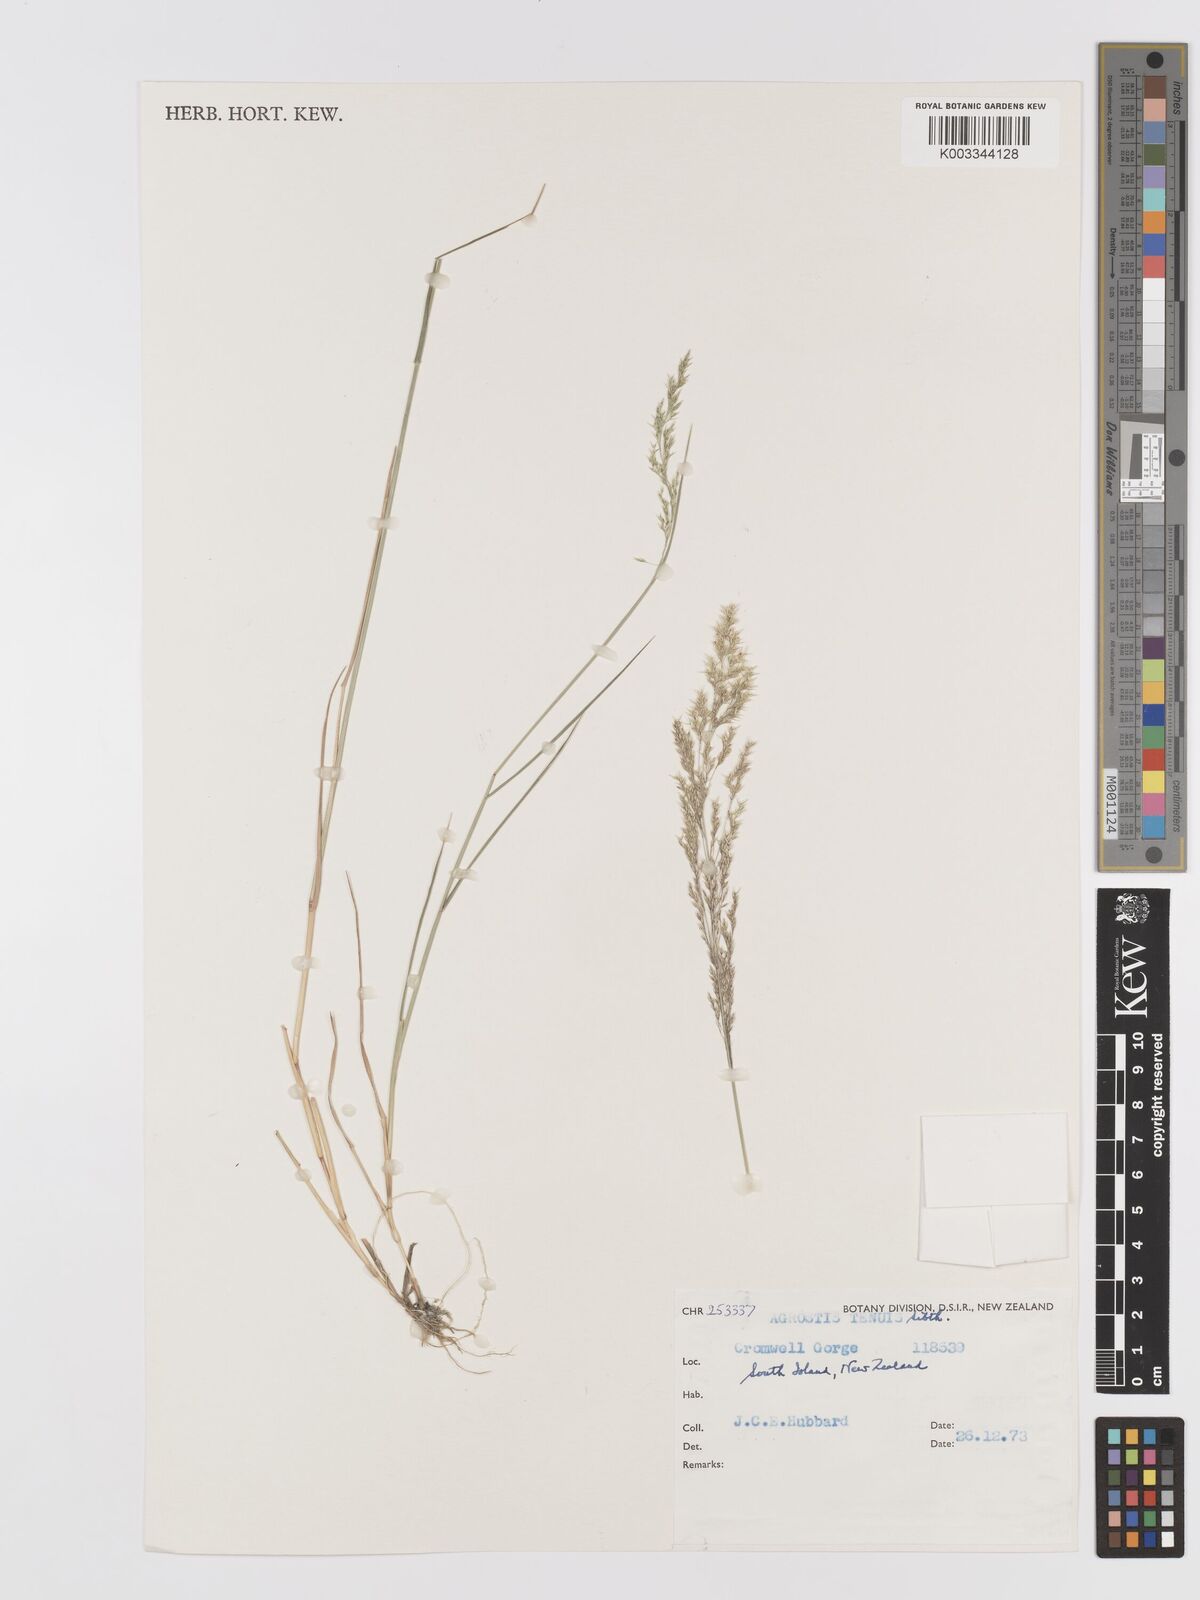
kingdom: Plantae
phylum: Tracheophyta
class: Liliopsida
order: Poales
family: Poaceae
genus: Agrostis
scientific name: Agrostis capillaris
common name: Colonial bentgrass
